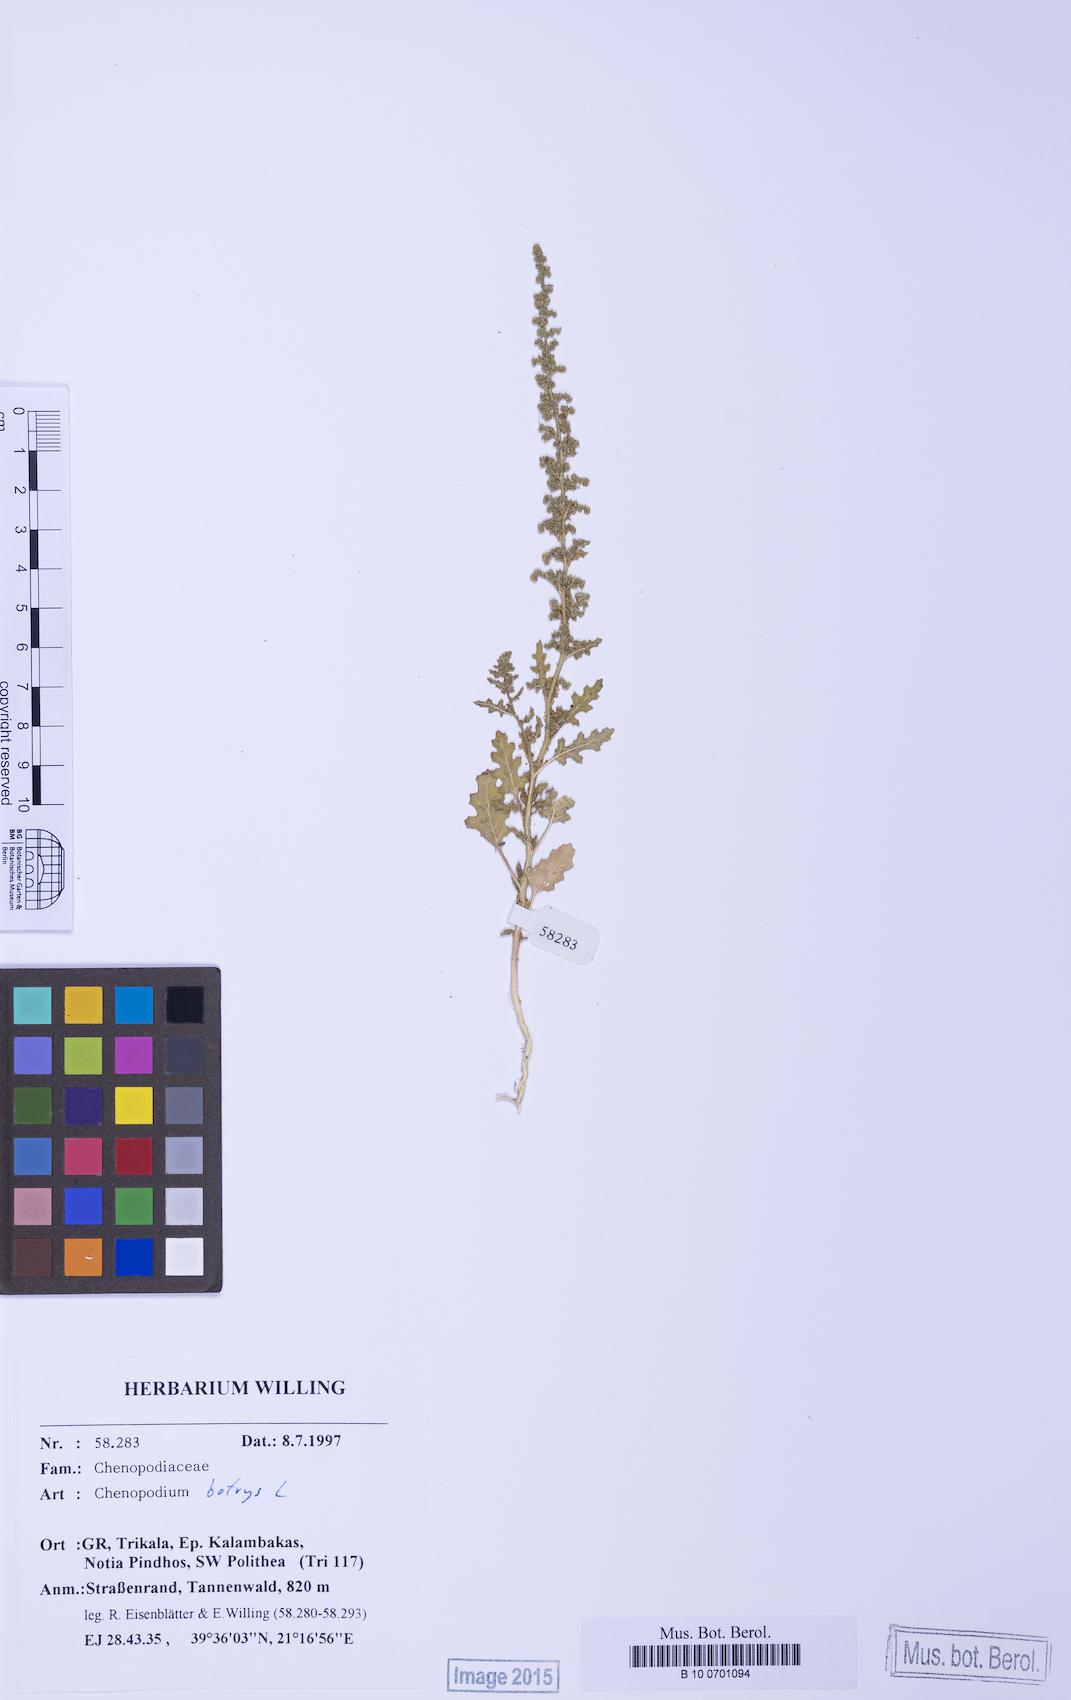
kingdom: Plantae
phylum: Tracheophyta
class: Magnoliopsida
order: Caryophyllales
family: Amaranthaceae
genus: Dysphania
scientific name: Dysphania botrys
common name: Feather-geranium
